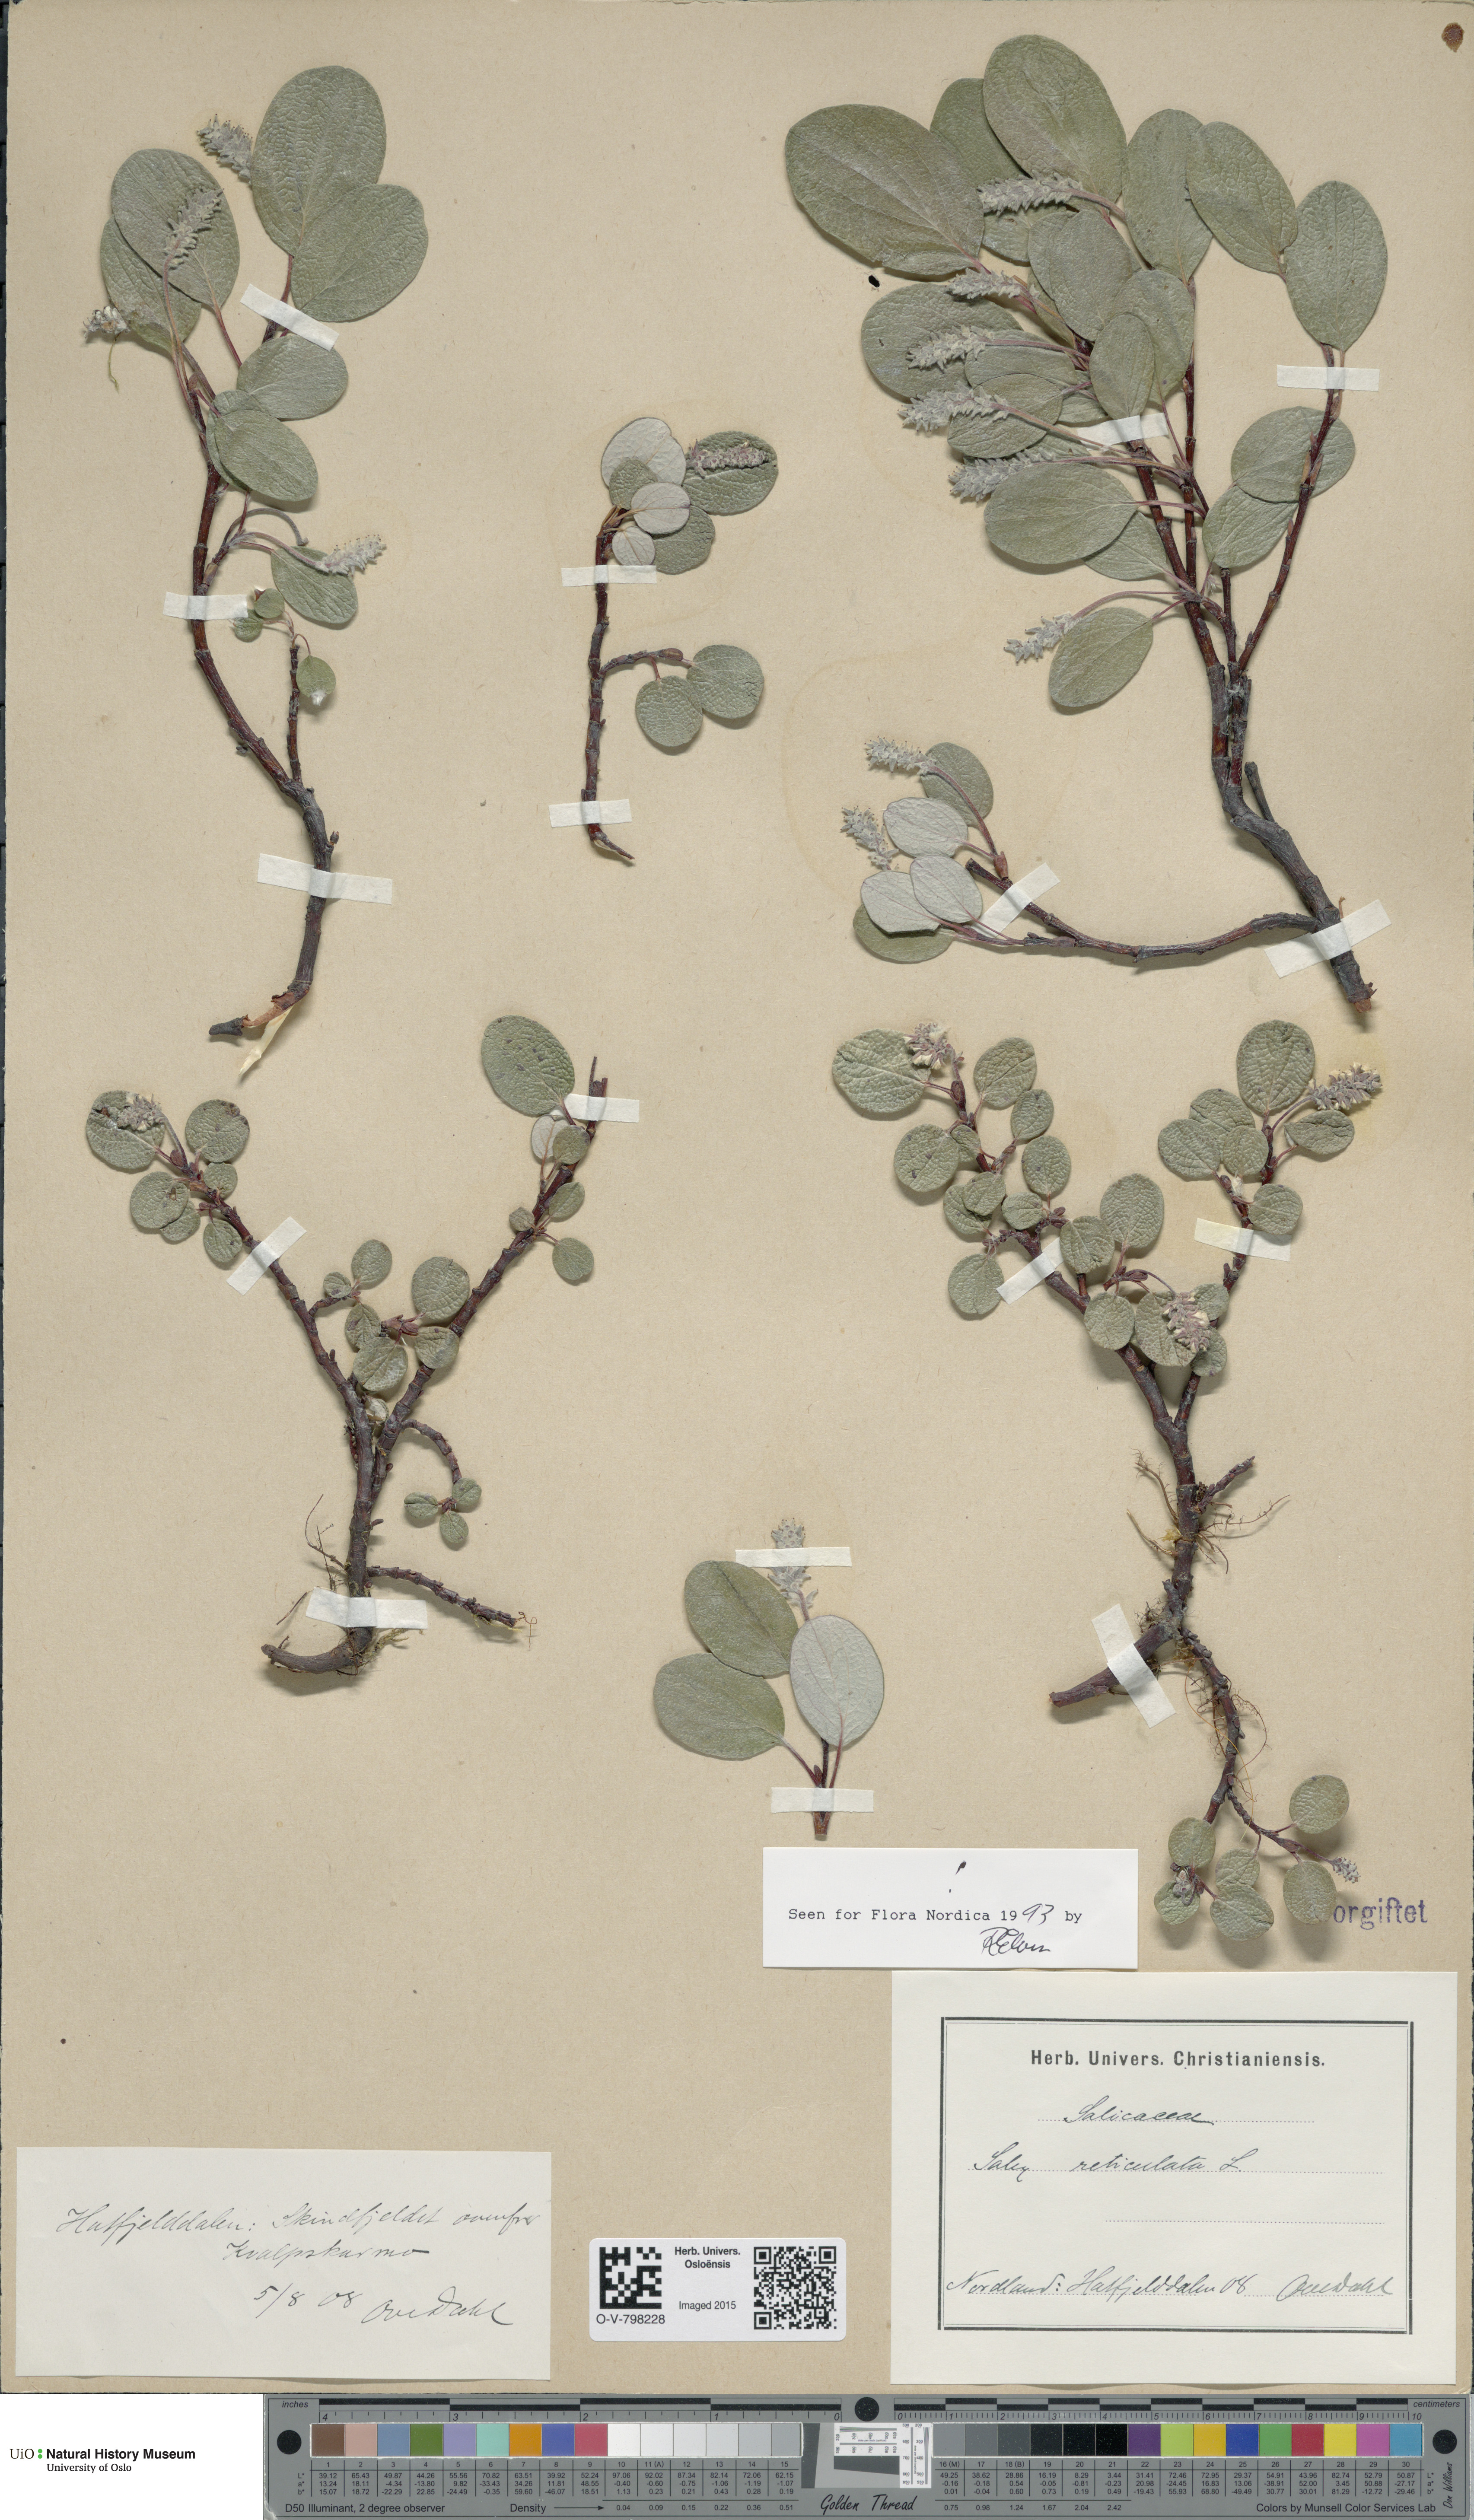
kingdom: Plantae
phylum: Tracheophyta
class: Magnoliopsida
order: Malpighiales
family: Salicaceae
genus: Salix
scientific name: Salix reticulata
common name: Net-leaved willow
